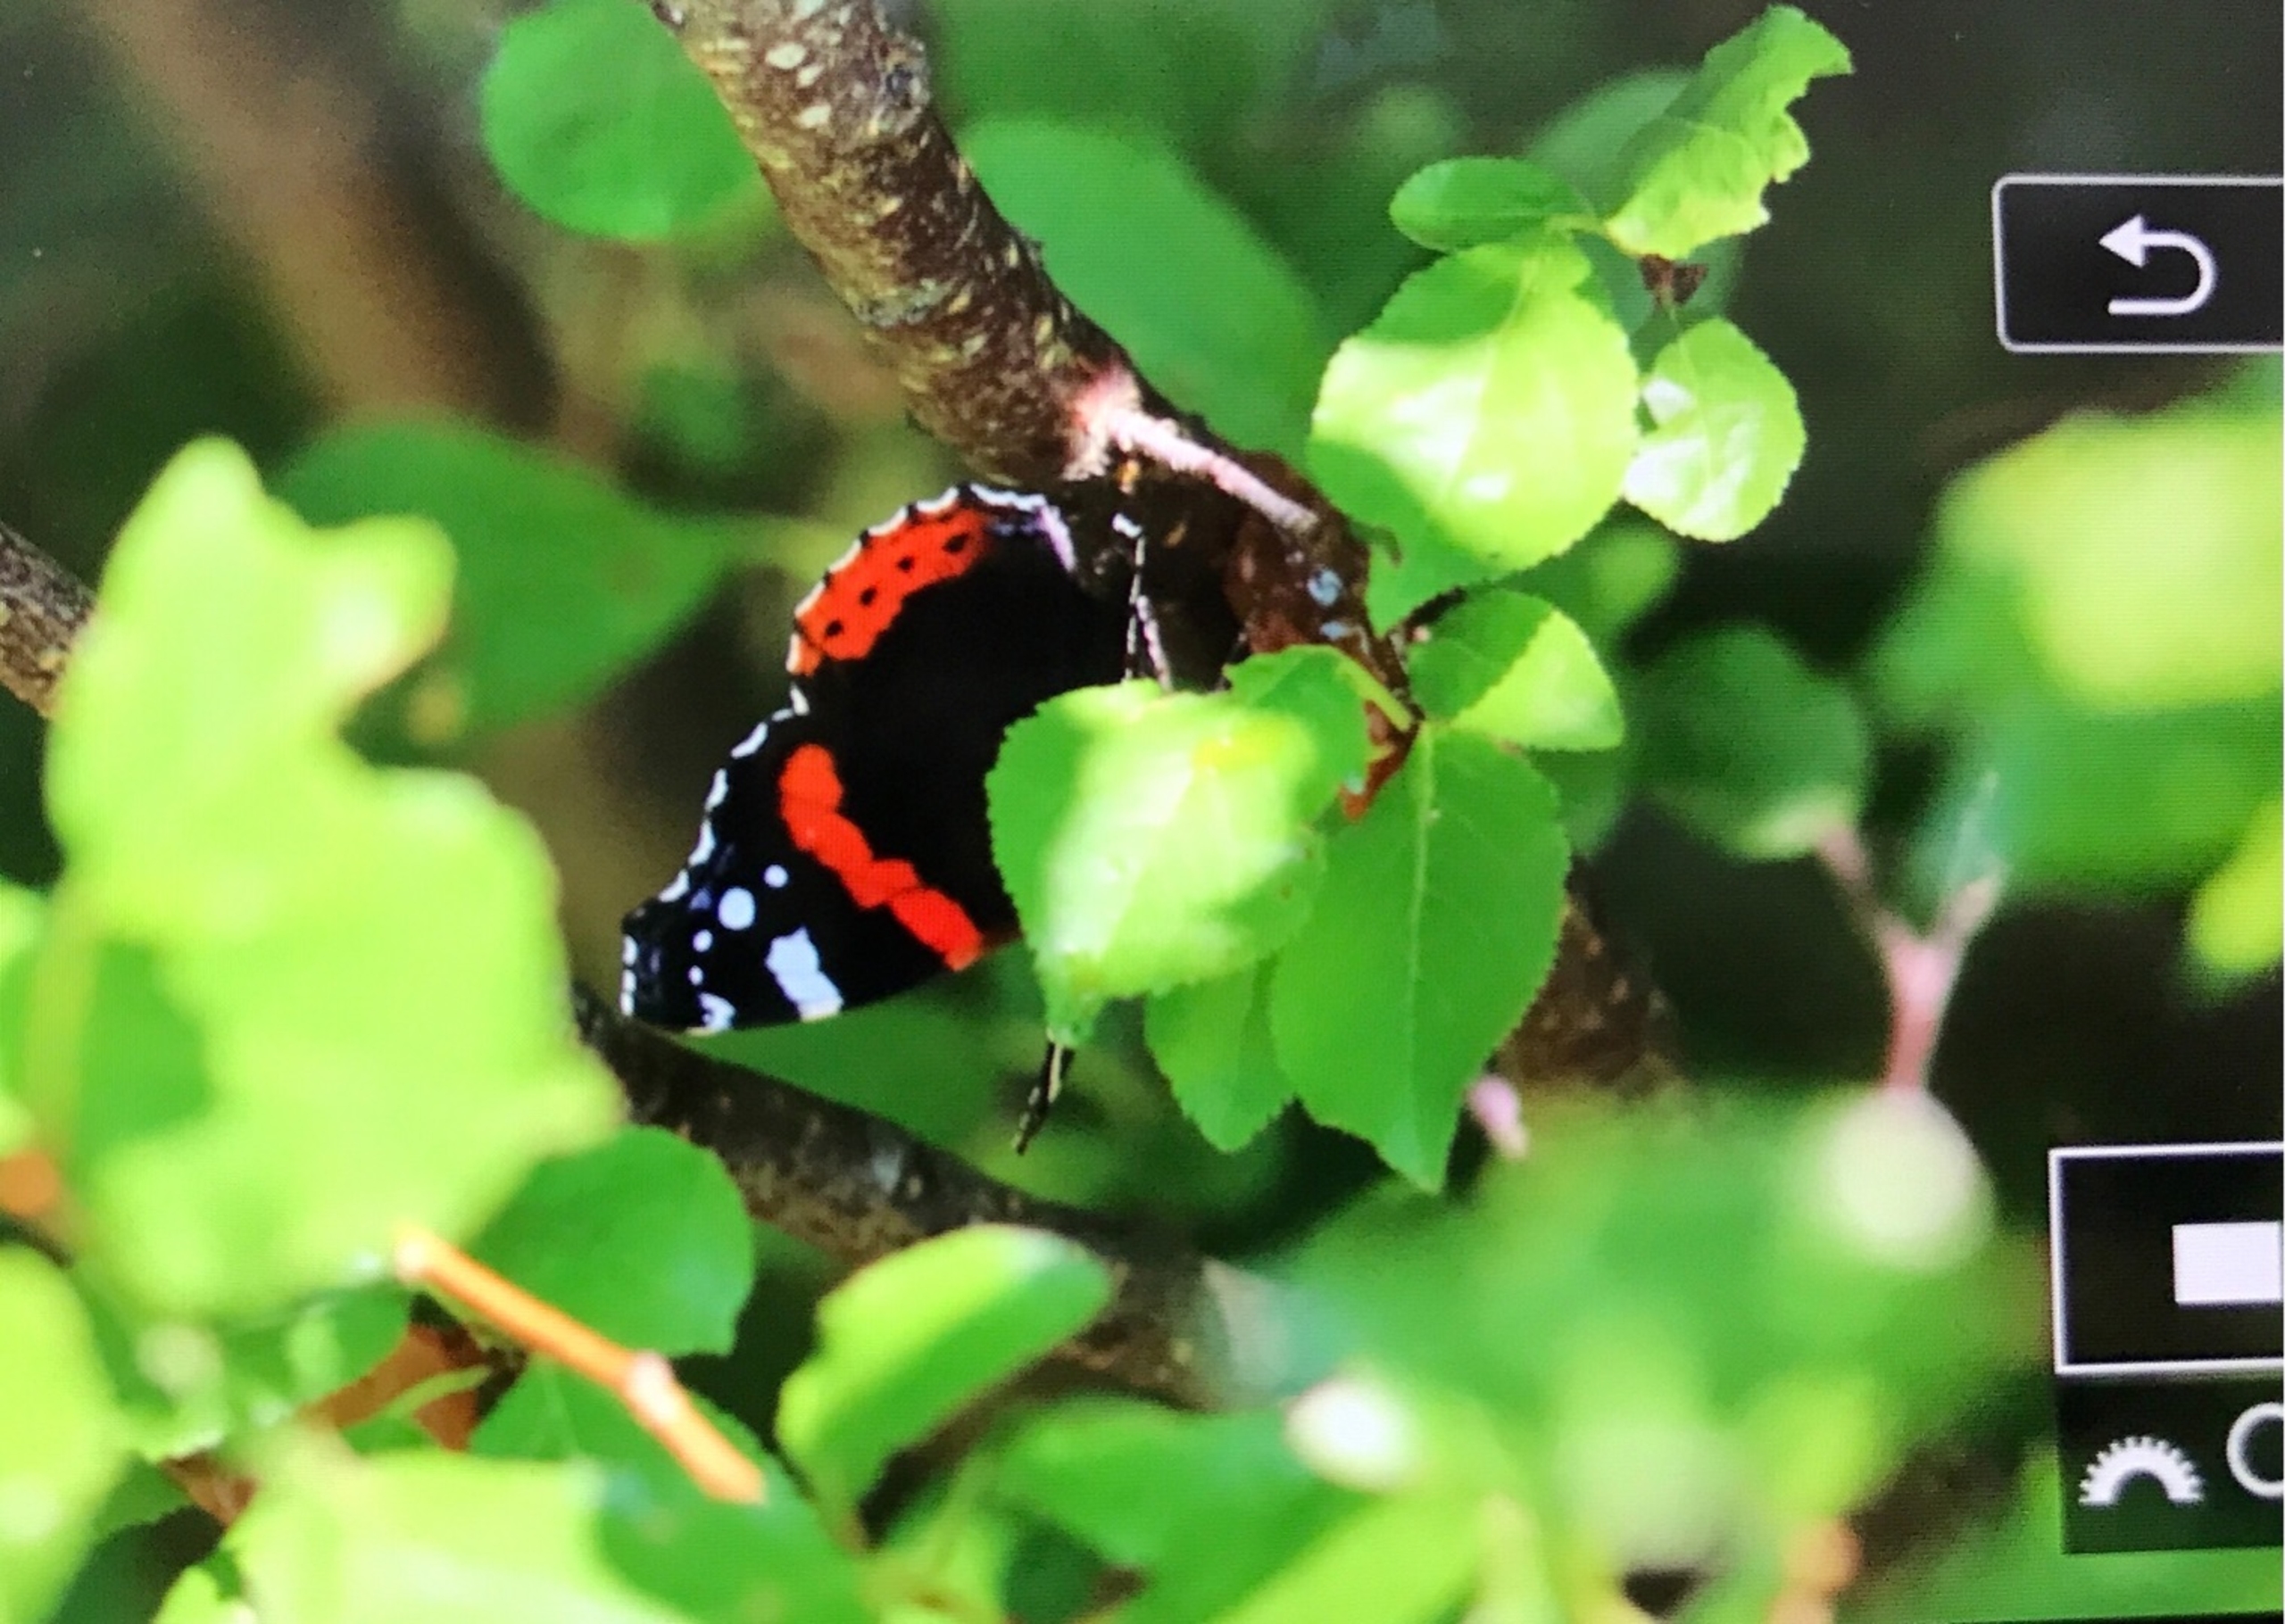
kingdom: Animalia
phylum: Arthropoda
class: Insecta
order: Lepidoptera
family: Nymphalidae
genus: Vanessa
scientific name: Vanessa atalanta
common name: Admiral
